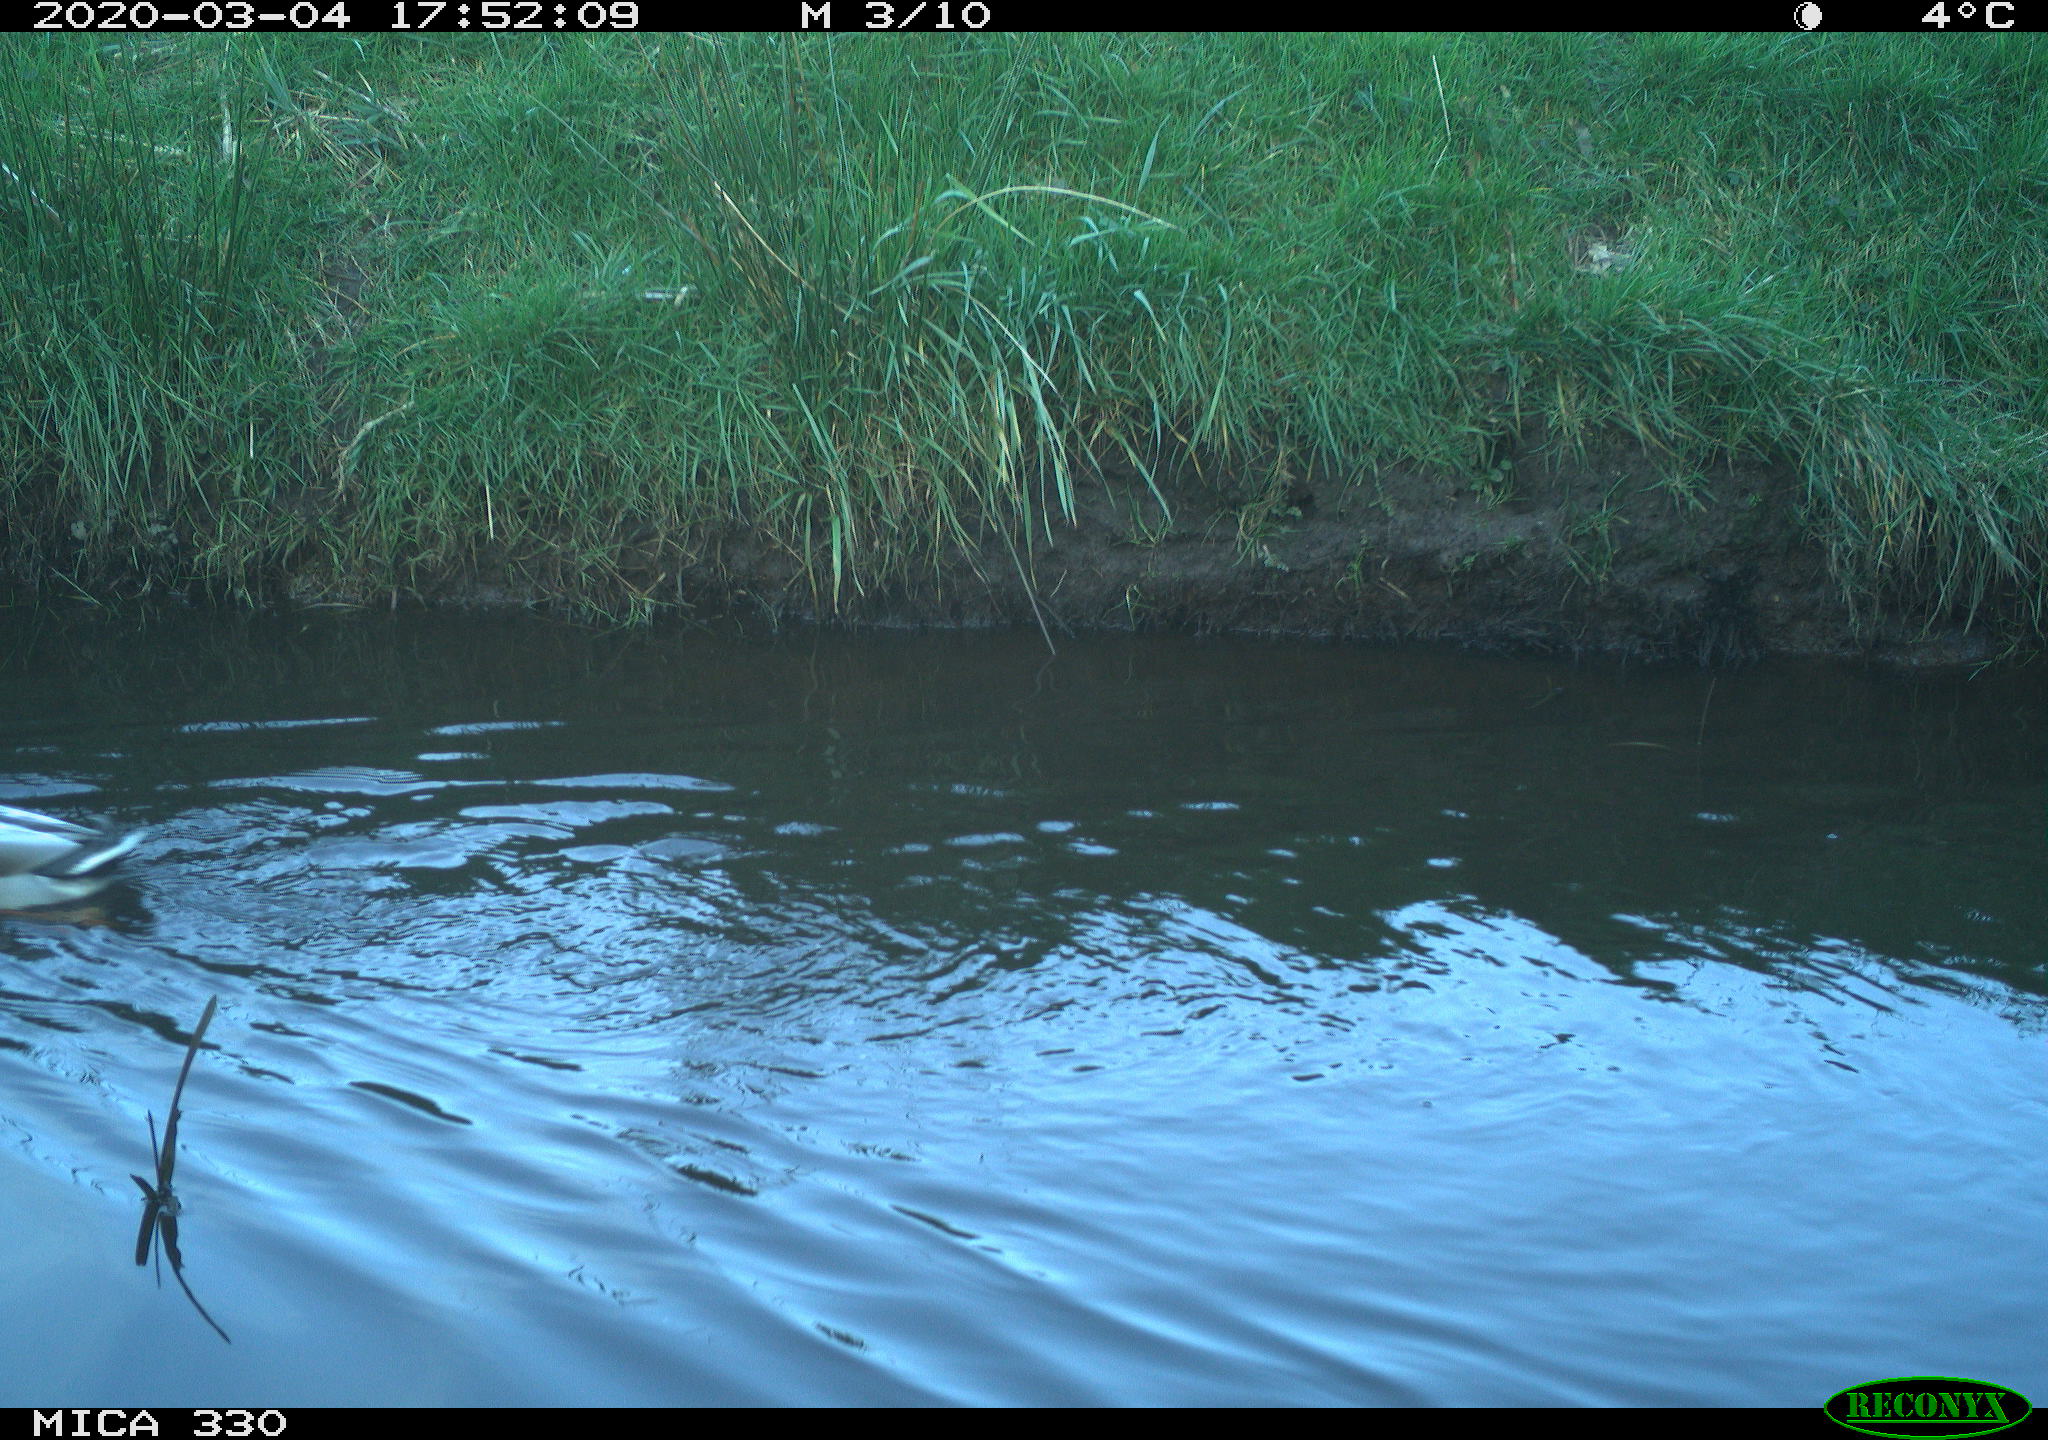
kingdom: Animalia
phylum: Chordata
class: Aves
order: Anseriformes
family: Anatidae
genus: Anas
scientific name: Anas platyrhynchos
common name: Mallard
